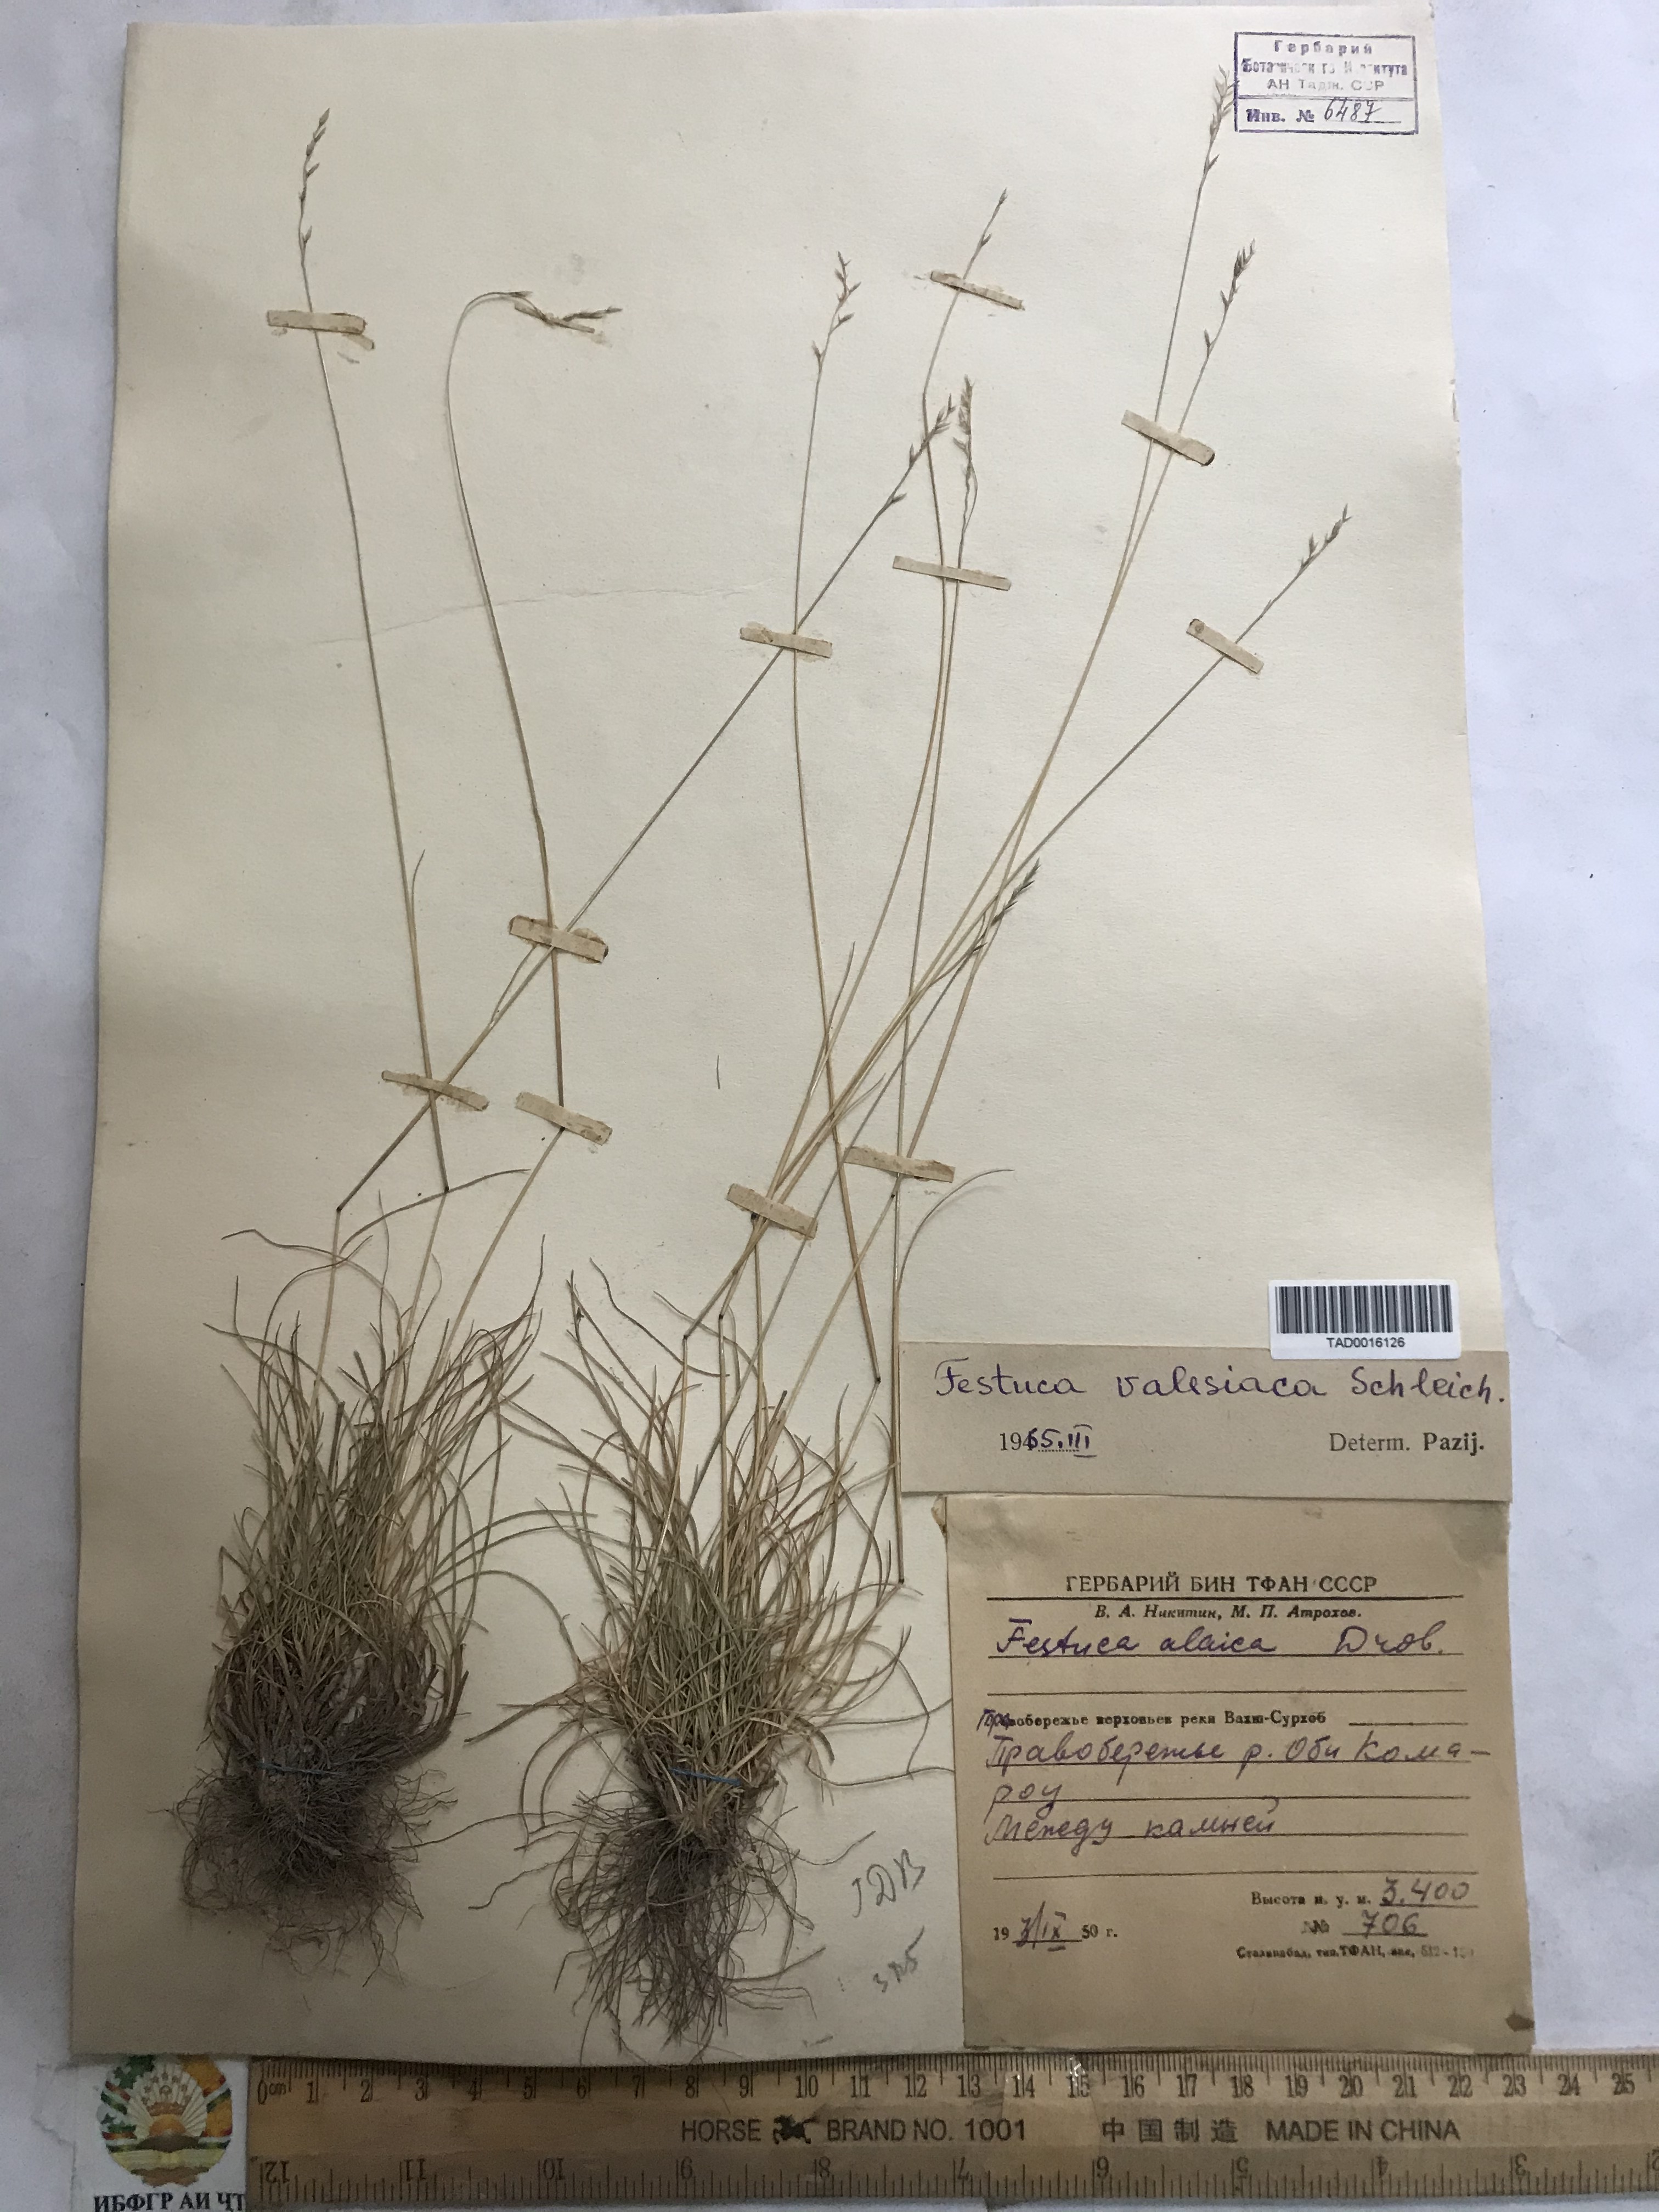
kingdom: Plantae
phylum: Tracheophyta
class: Liliopsida
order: Poales
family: Poaceae
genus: Festuca
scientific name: Festuca valesiaca
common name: Volga fescue
